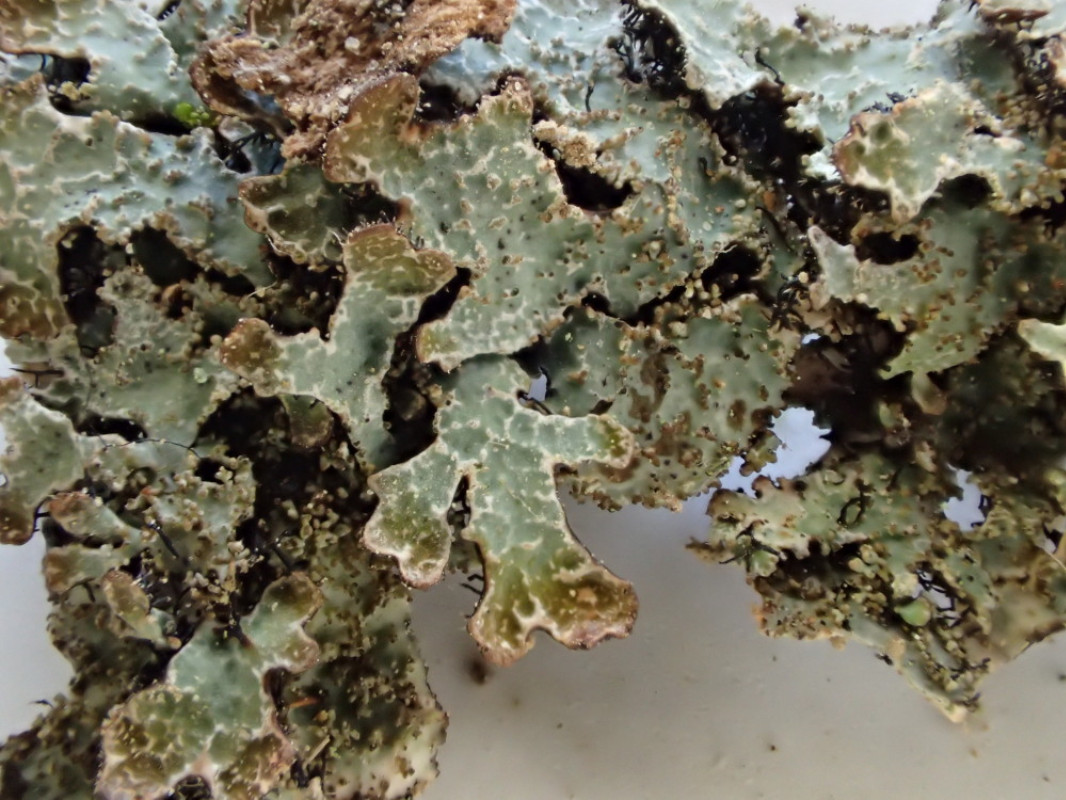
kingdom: Fungi
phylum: Ascomycota
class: Lecanoromycetes
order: Lecanorales
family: Parmeliaceae
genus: Parmelia
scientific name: Parmelia saxatilis
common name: farve-skållav
